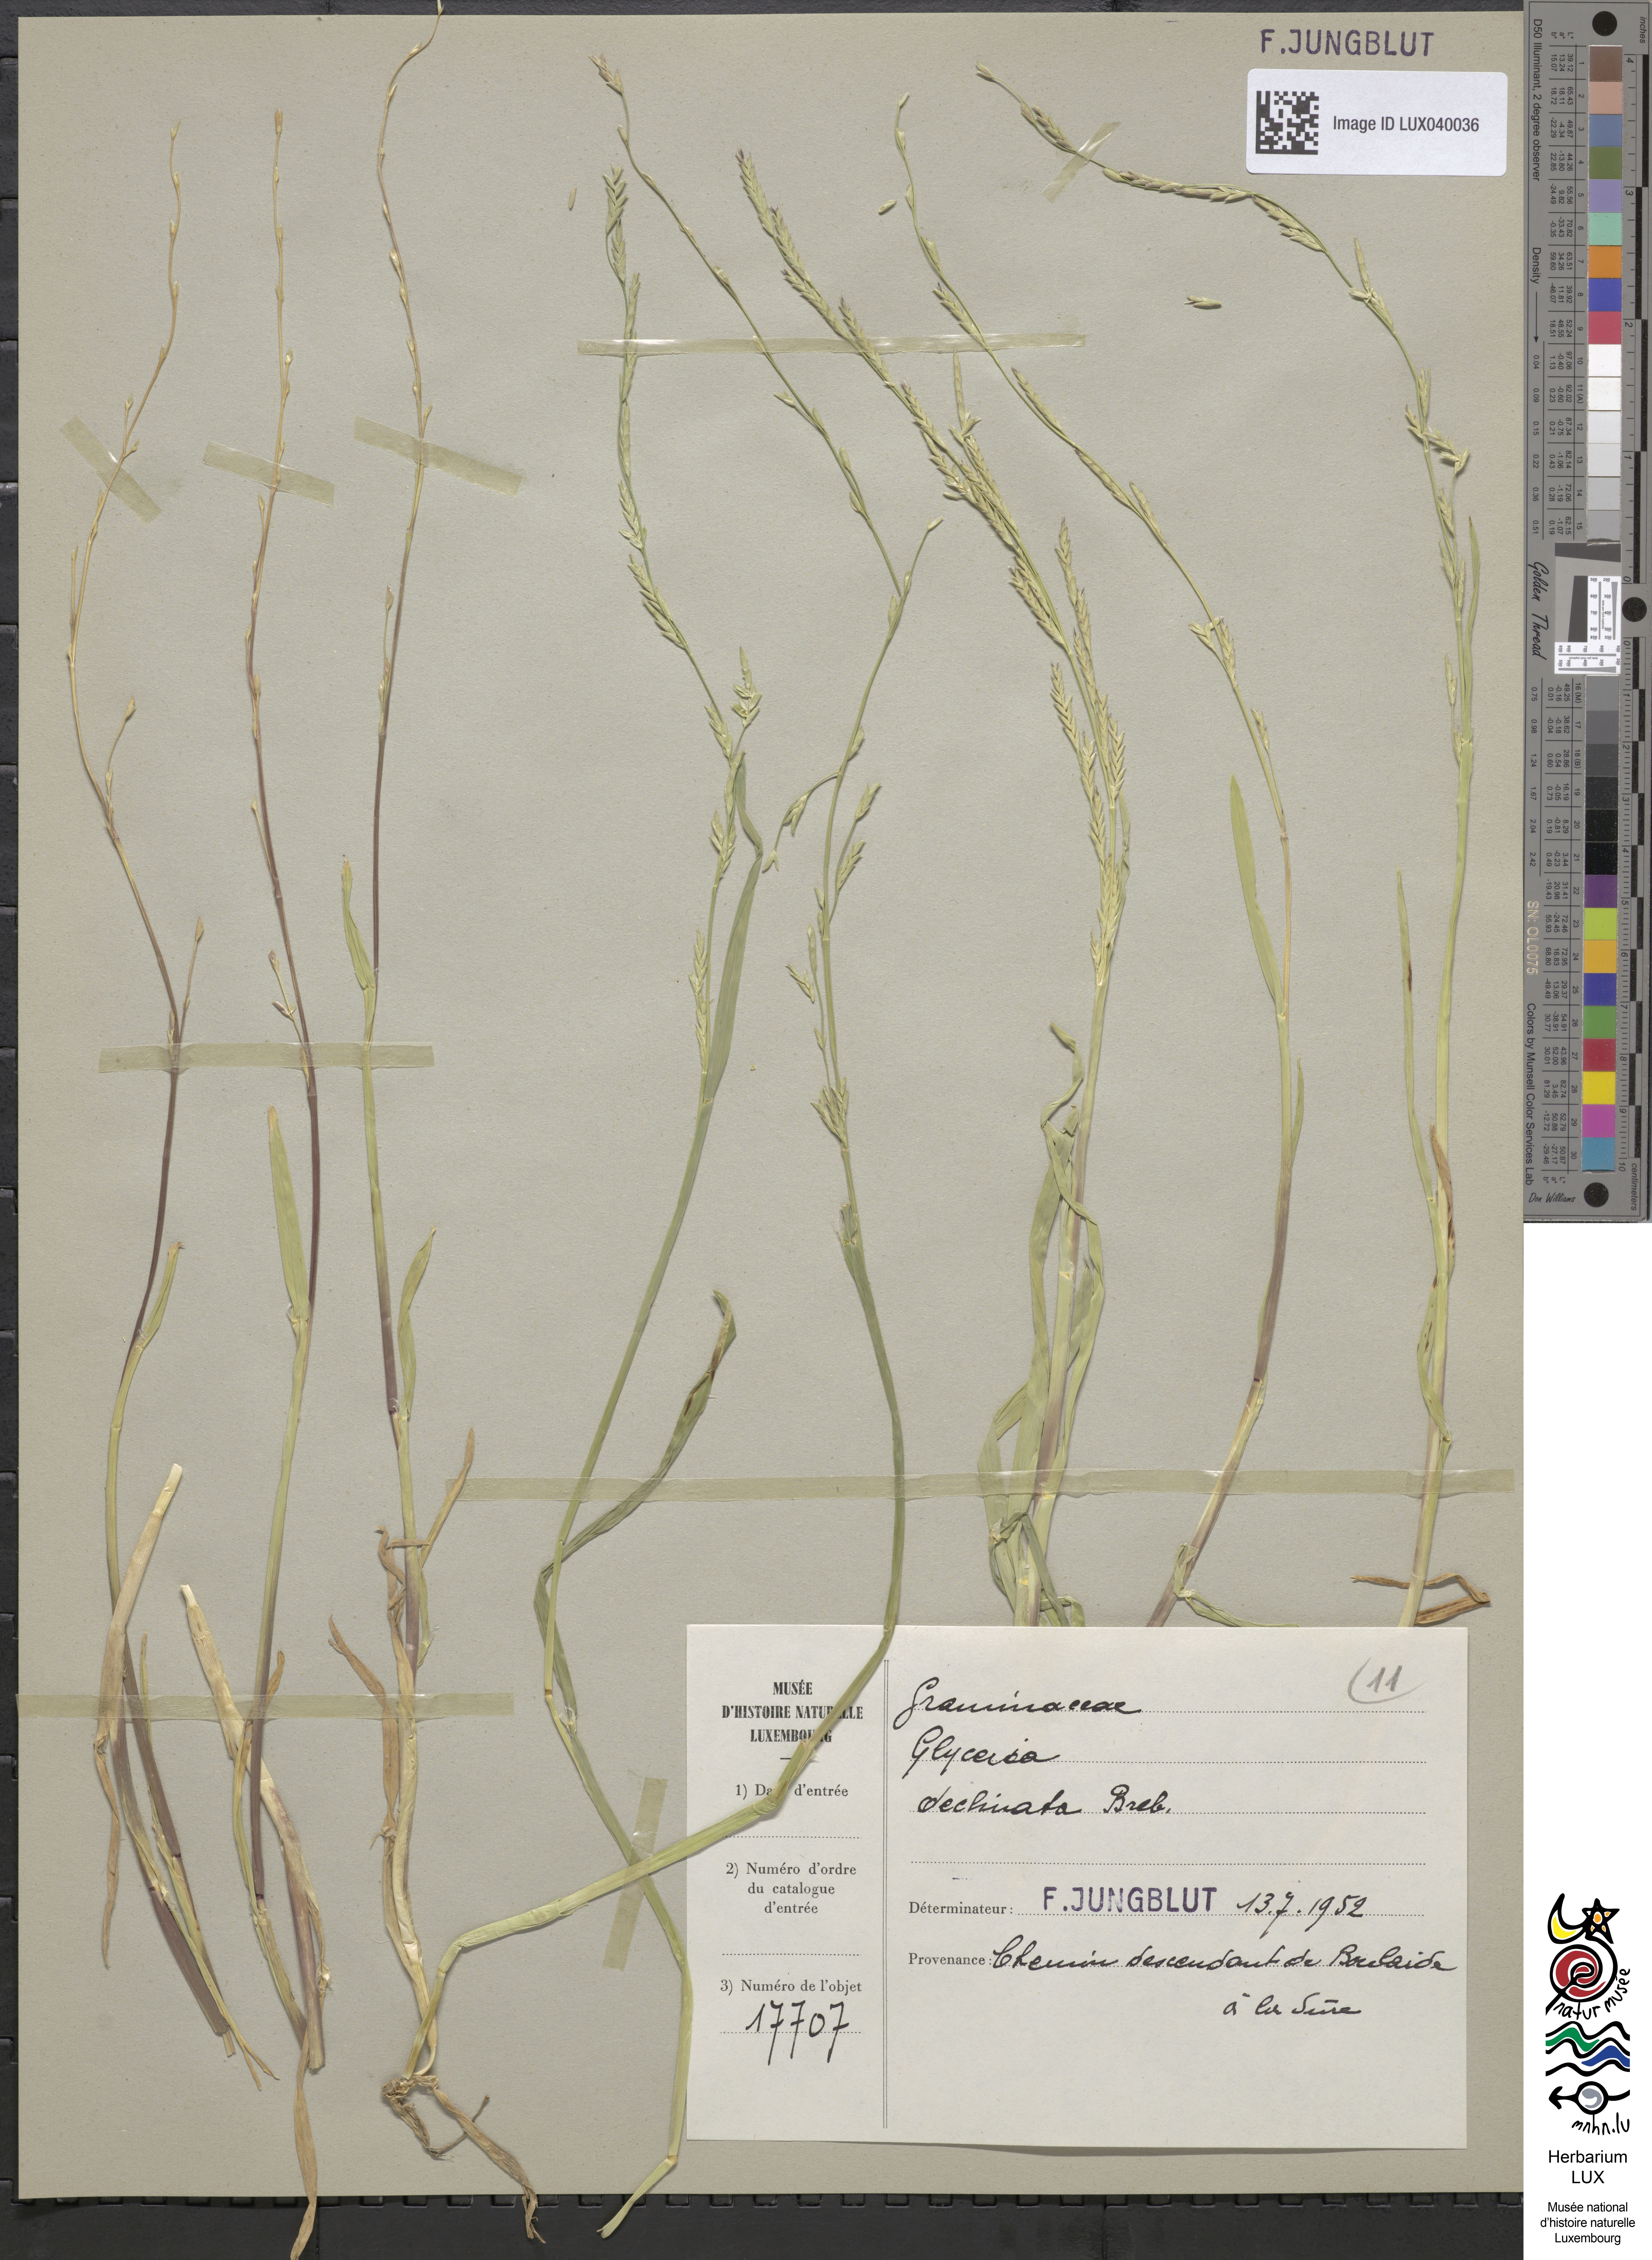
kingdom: Plantae
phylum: Tracheophyta
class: Liliopsida
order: Poales
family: Poaceae
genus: Glyceria
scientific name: Glyceria declinata
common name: Small sweet-grass
